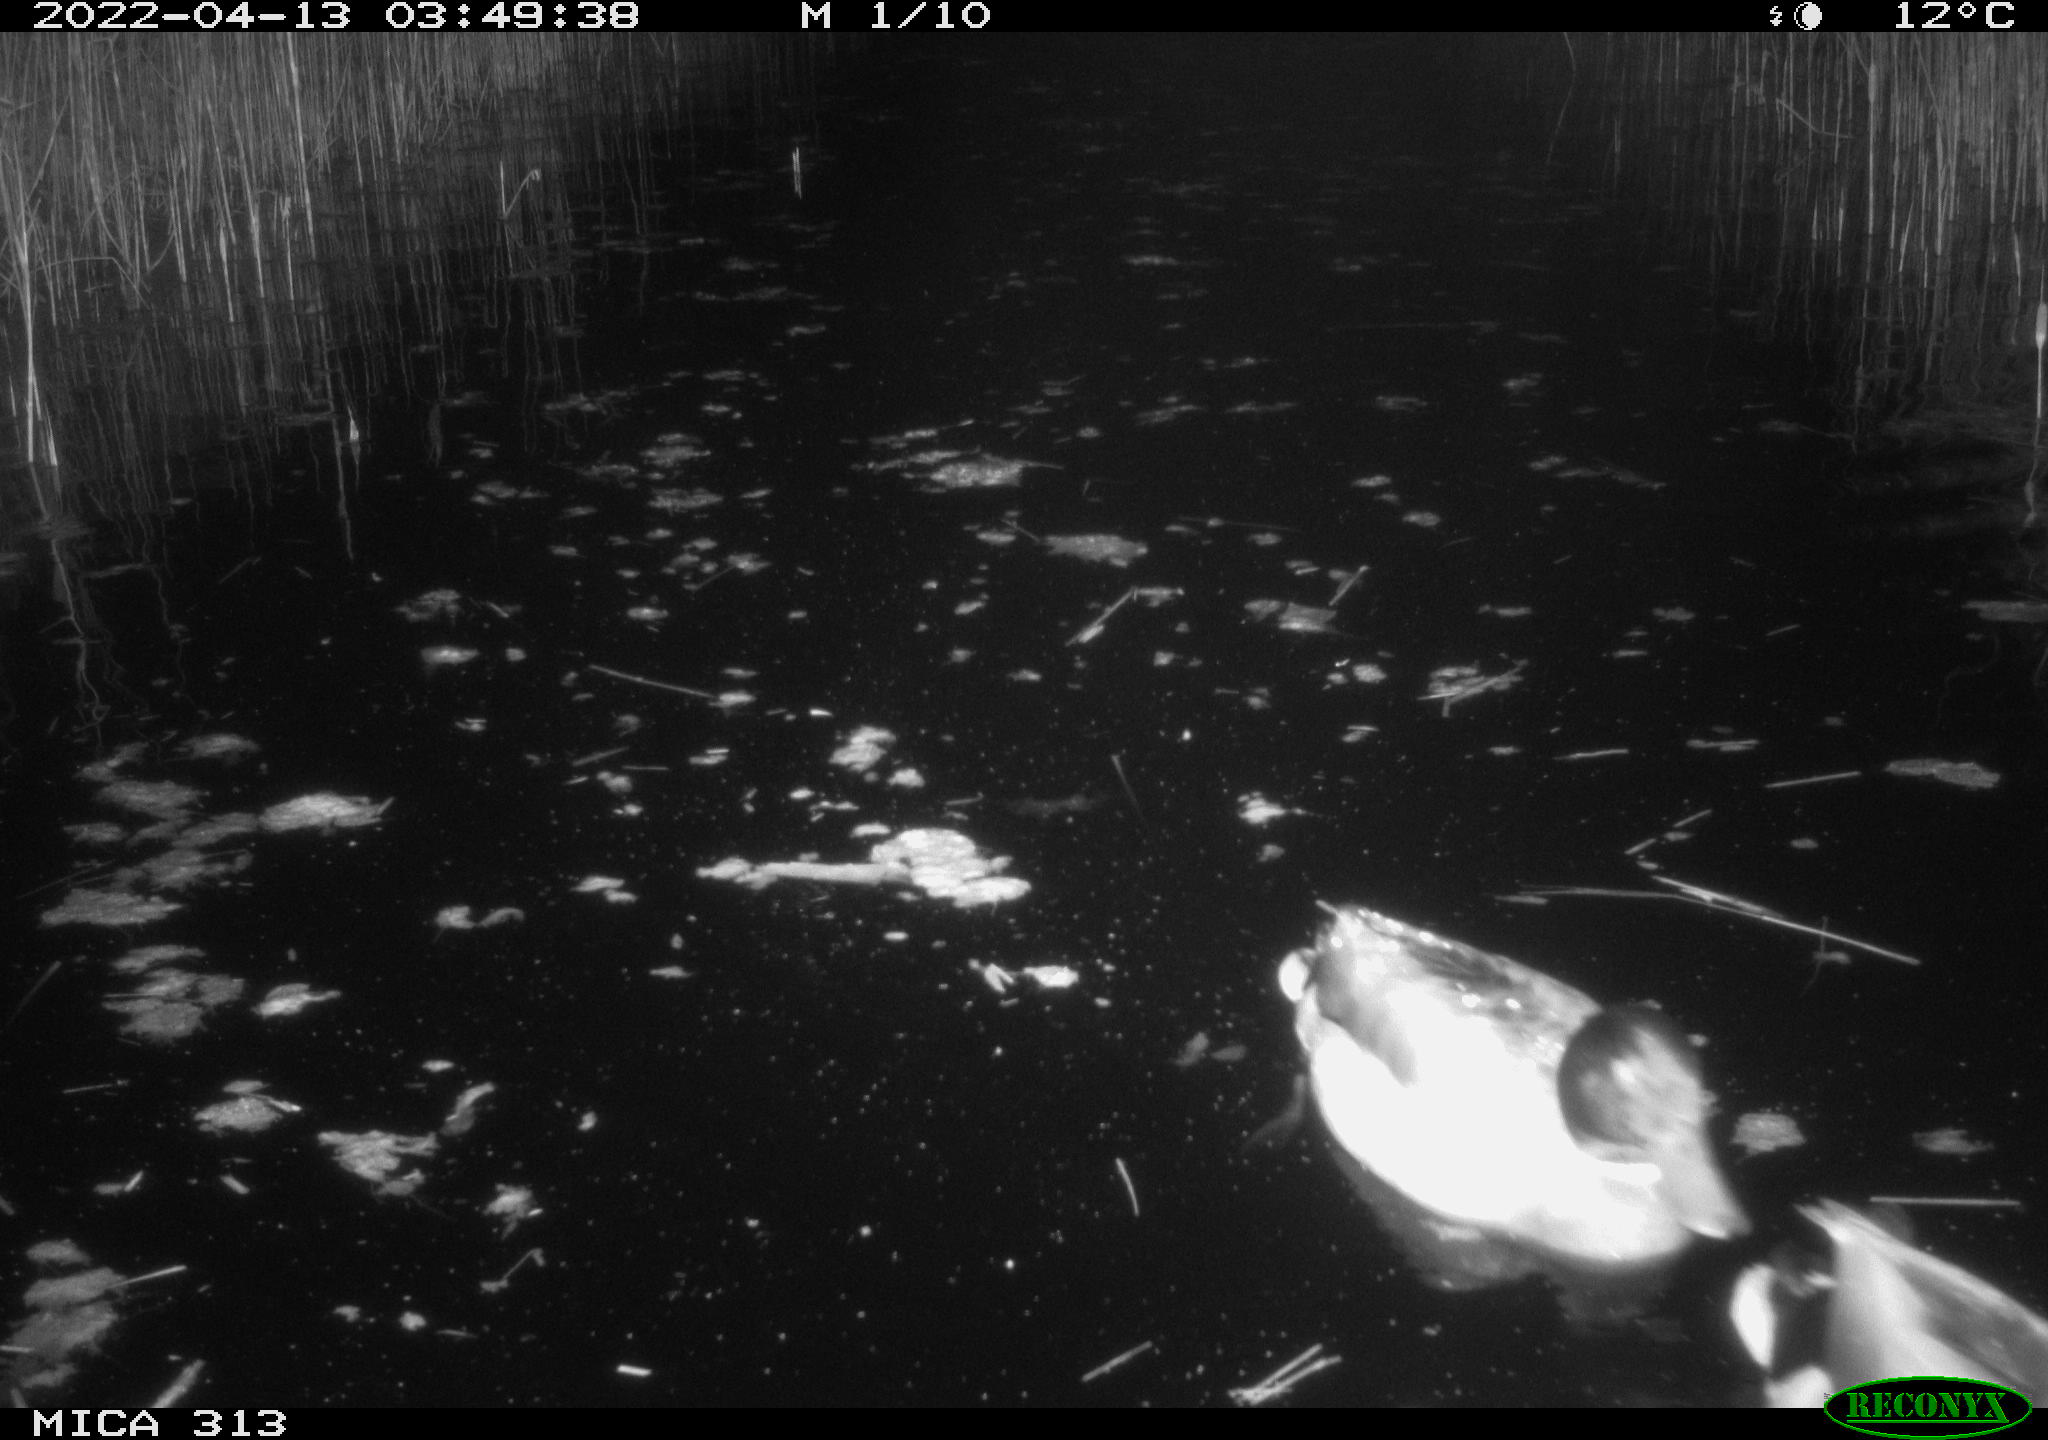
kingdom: Animalia
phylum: Chordata
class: Aves
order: Anseriformes
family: Anatidae
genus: Anas
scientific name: Anas platyrhynchos
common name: Mallard
